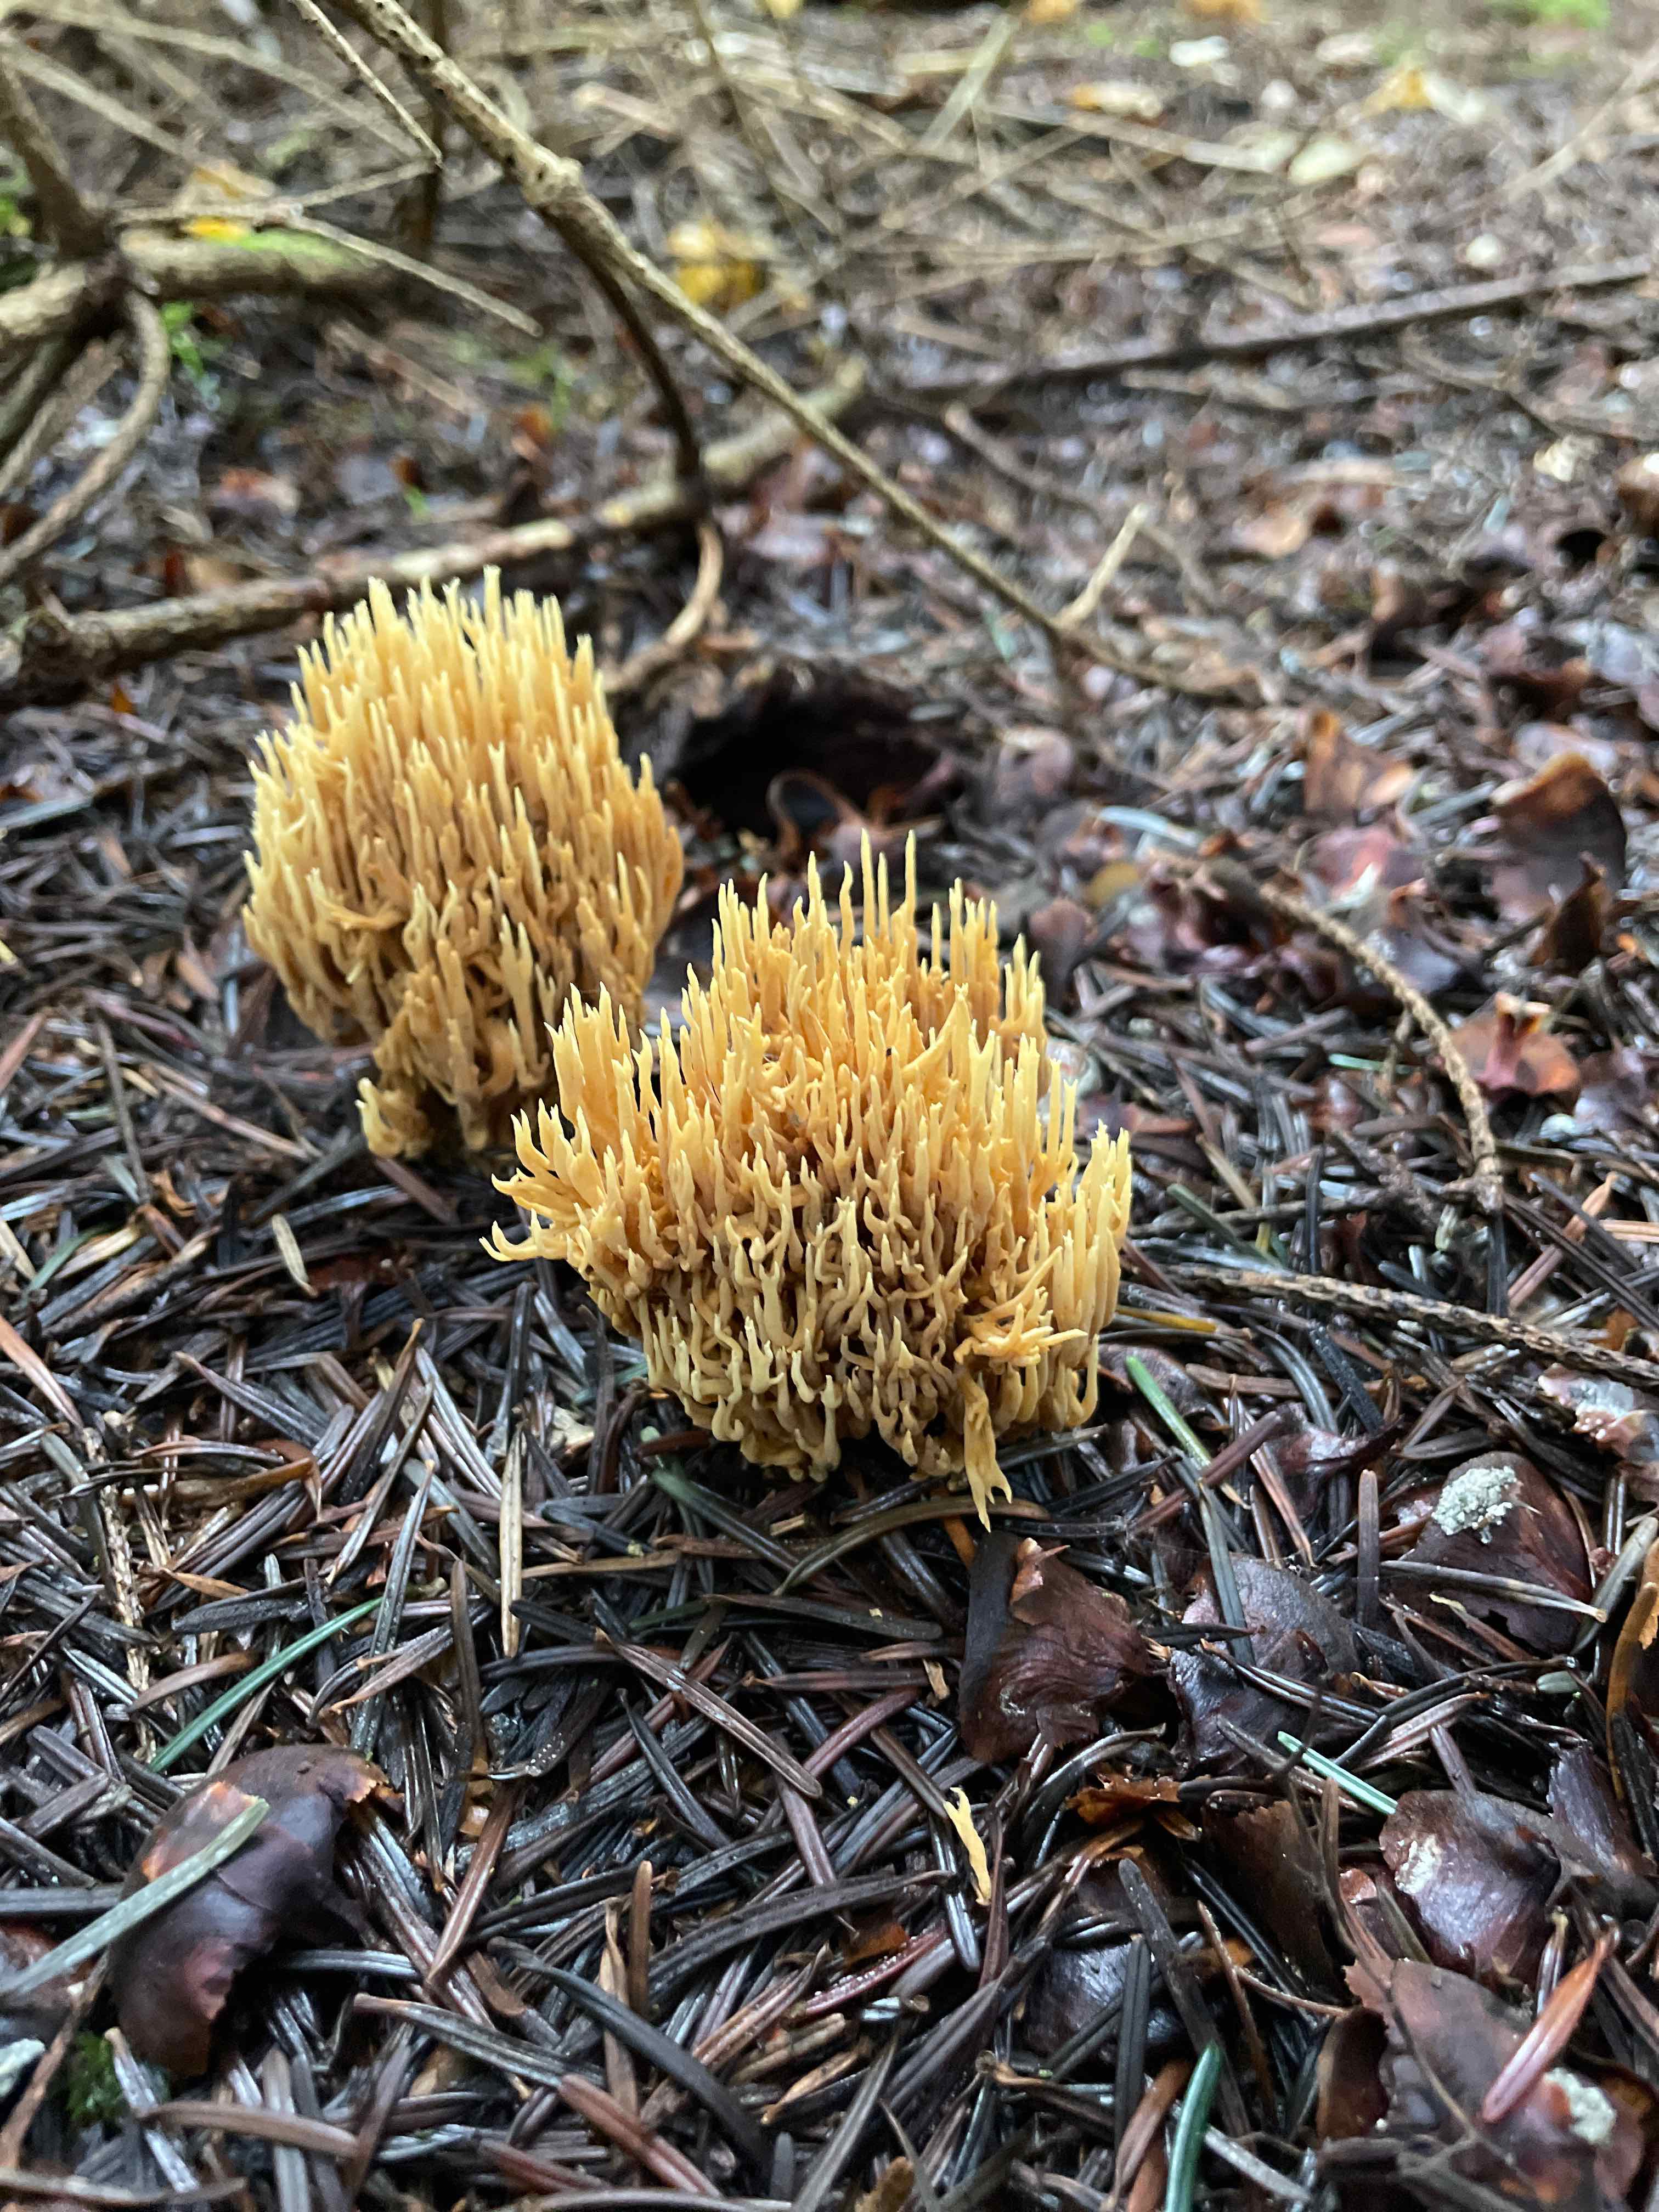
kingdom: Fungi
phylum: Basidiomycota
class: Agaricomycetes
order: Gomphales
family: Gomphaceae
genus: Phaeoclavulina
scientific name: Phaeoclavulina eumorpha
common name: gran-koralsvamp
